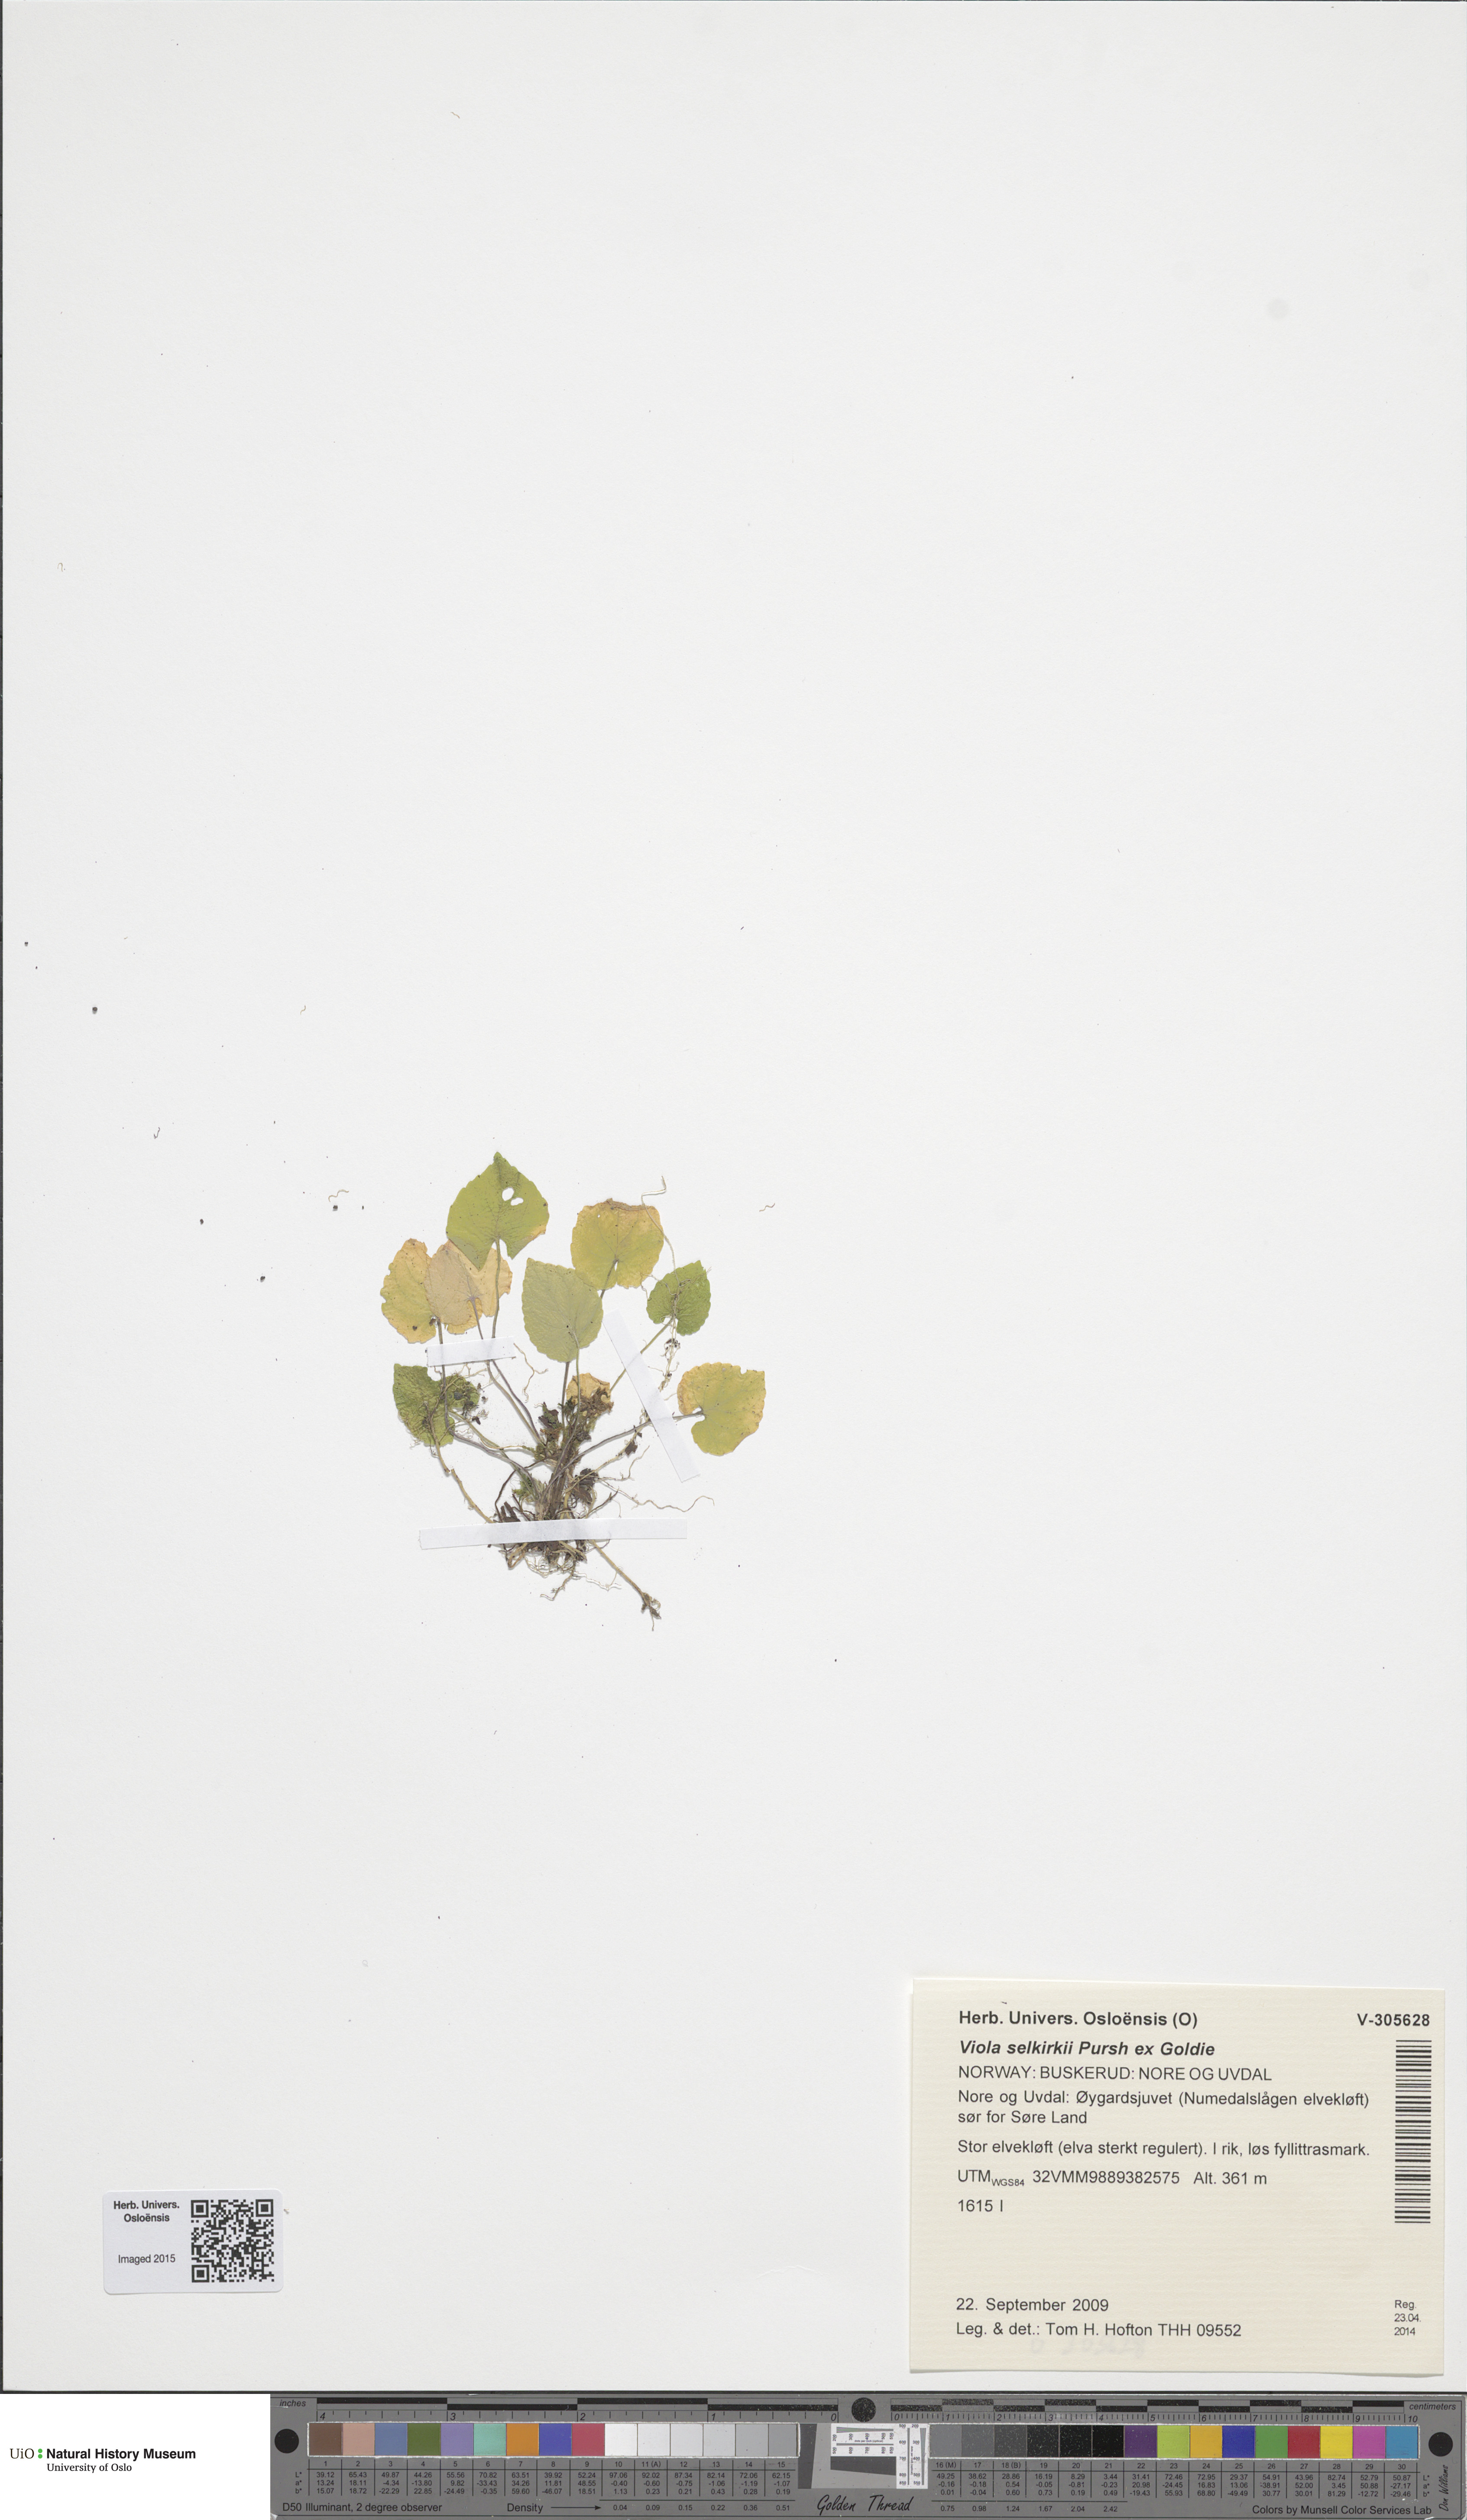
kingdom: Plantae
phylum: Tracheophyta
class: Magnoliopsida
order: Malpighiales
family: Violaceae
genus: Viola
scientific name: Viola selkirkii
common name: Selkirk's violet
